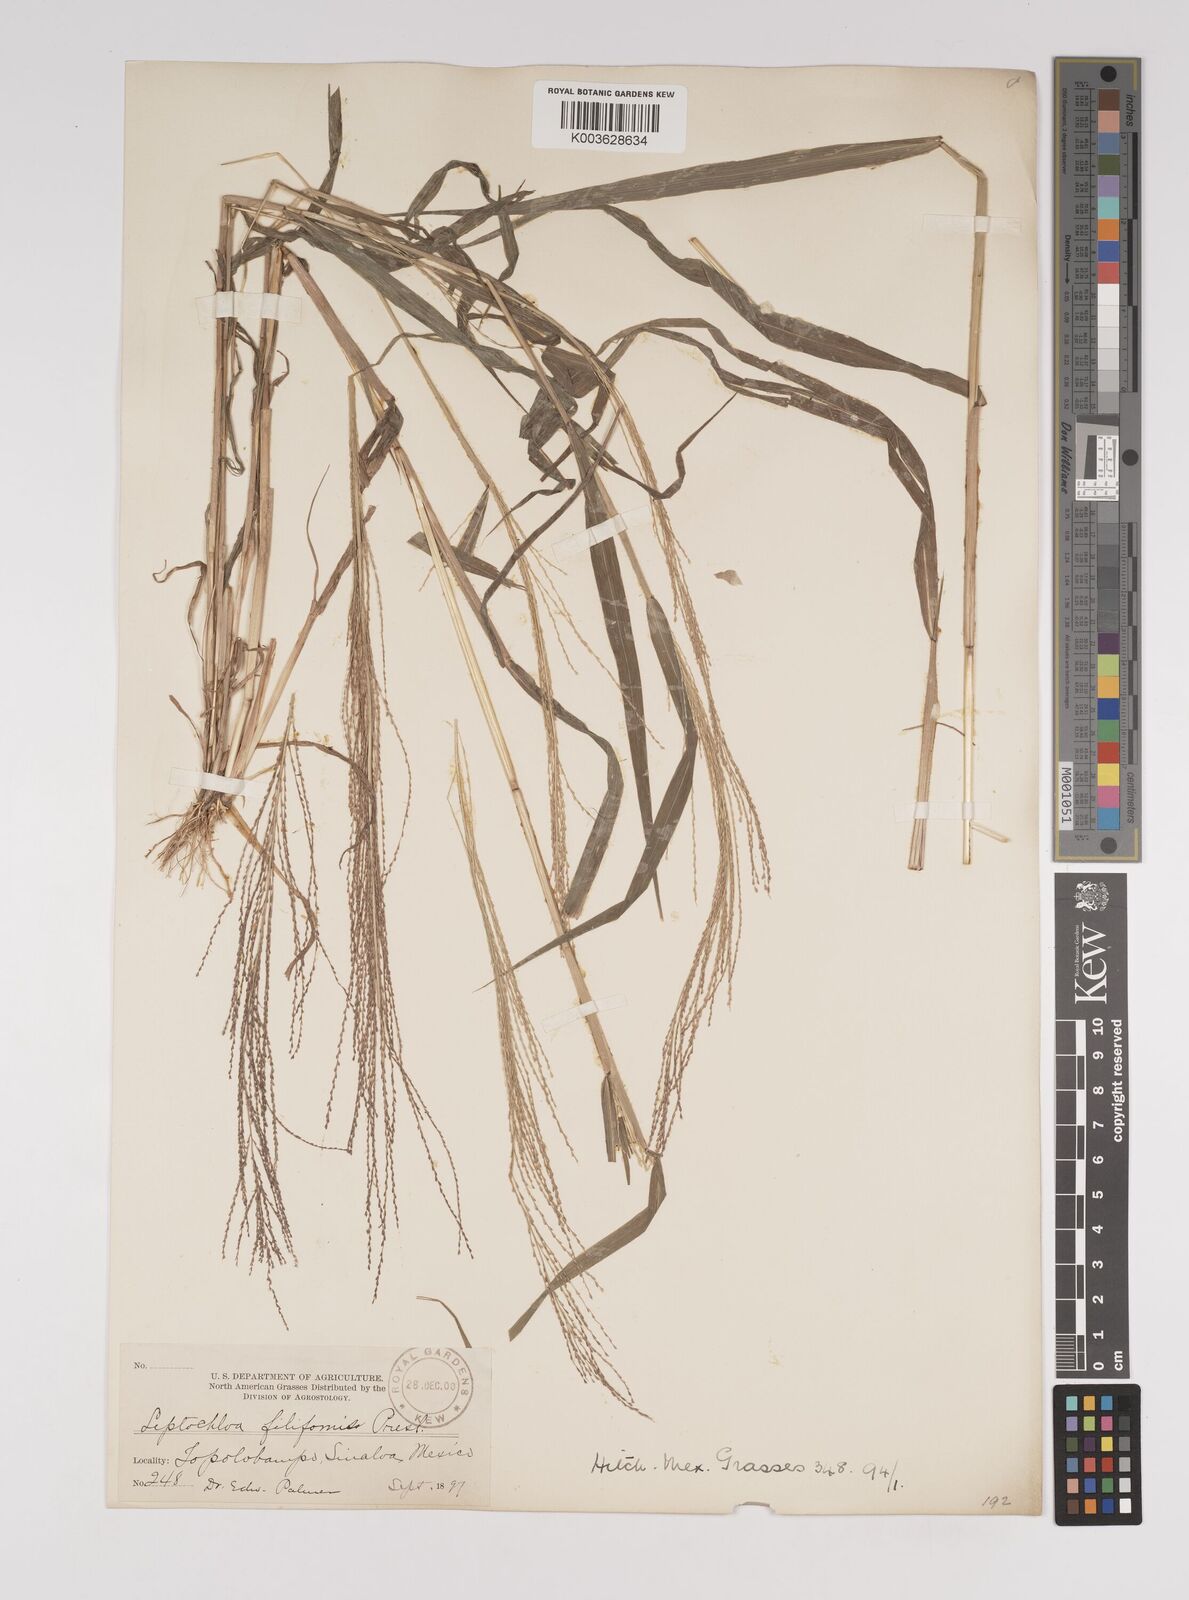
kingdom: Plantae
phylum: Tracheophyta
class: Liliopsida
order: Poales
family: Poaceae
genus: Leptochloa
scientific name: Leptochloa panicea
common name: Mucronate sprangletop
